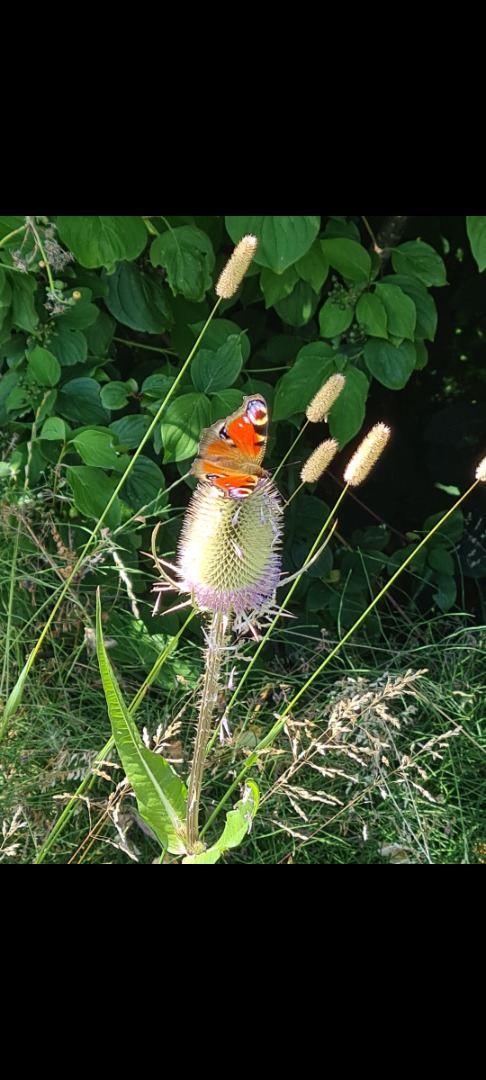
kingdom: Plantae
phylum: Tracheophyta
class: Magnoliopsida
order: Dipsacales
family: Caprifoliaceae
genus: Dipsacus
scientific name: Dipsacus fullonum
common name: Gærde-kartebolle
